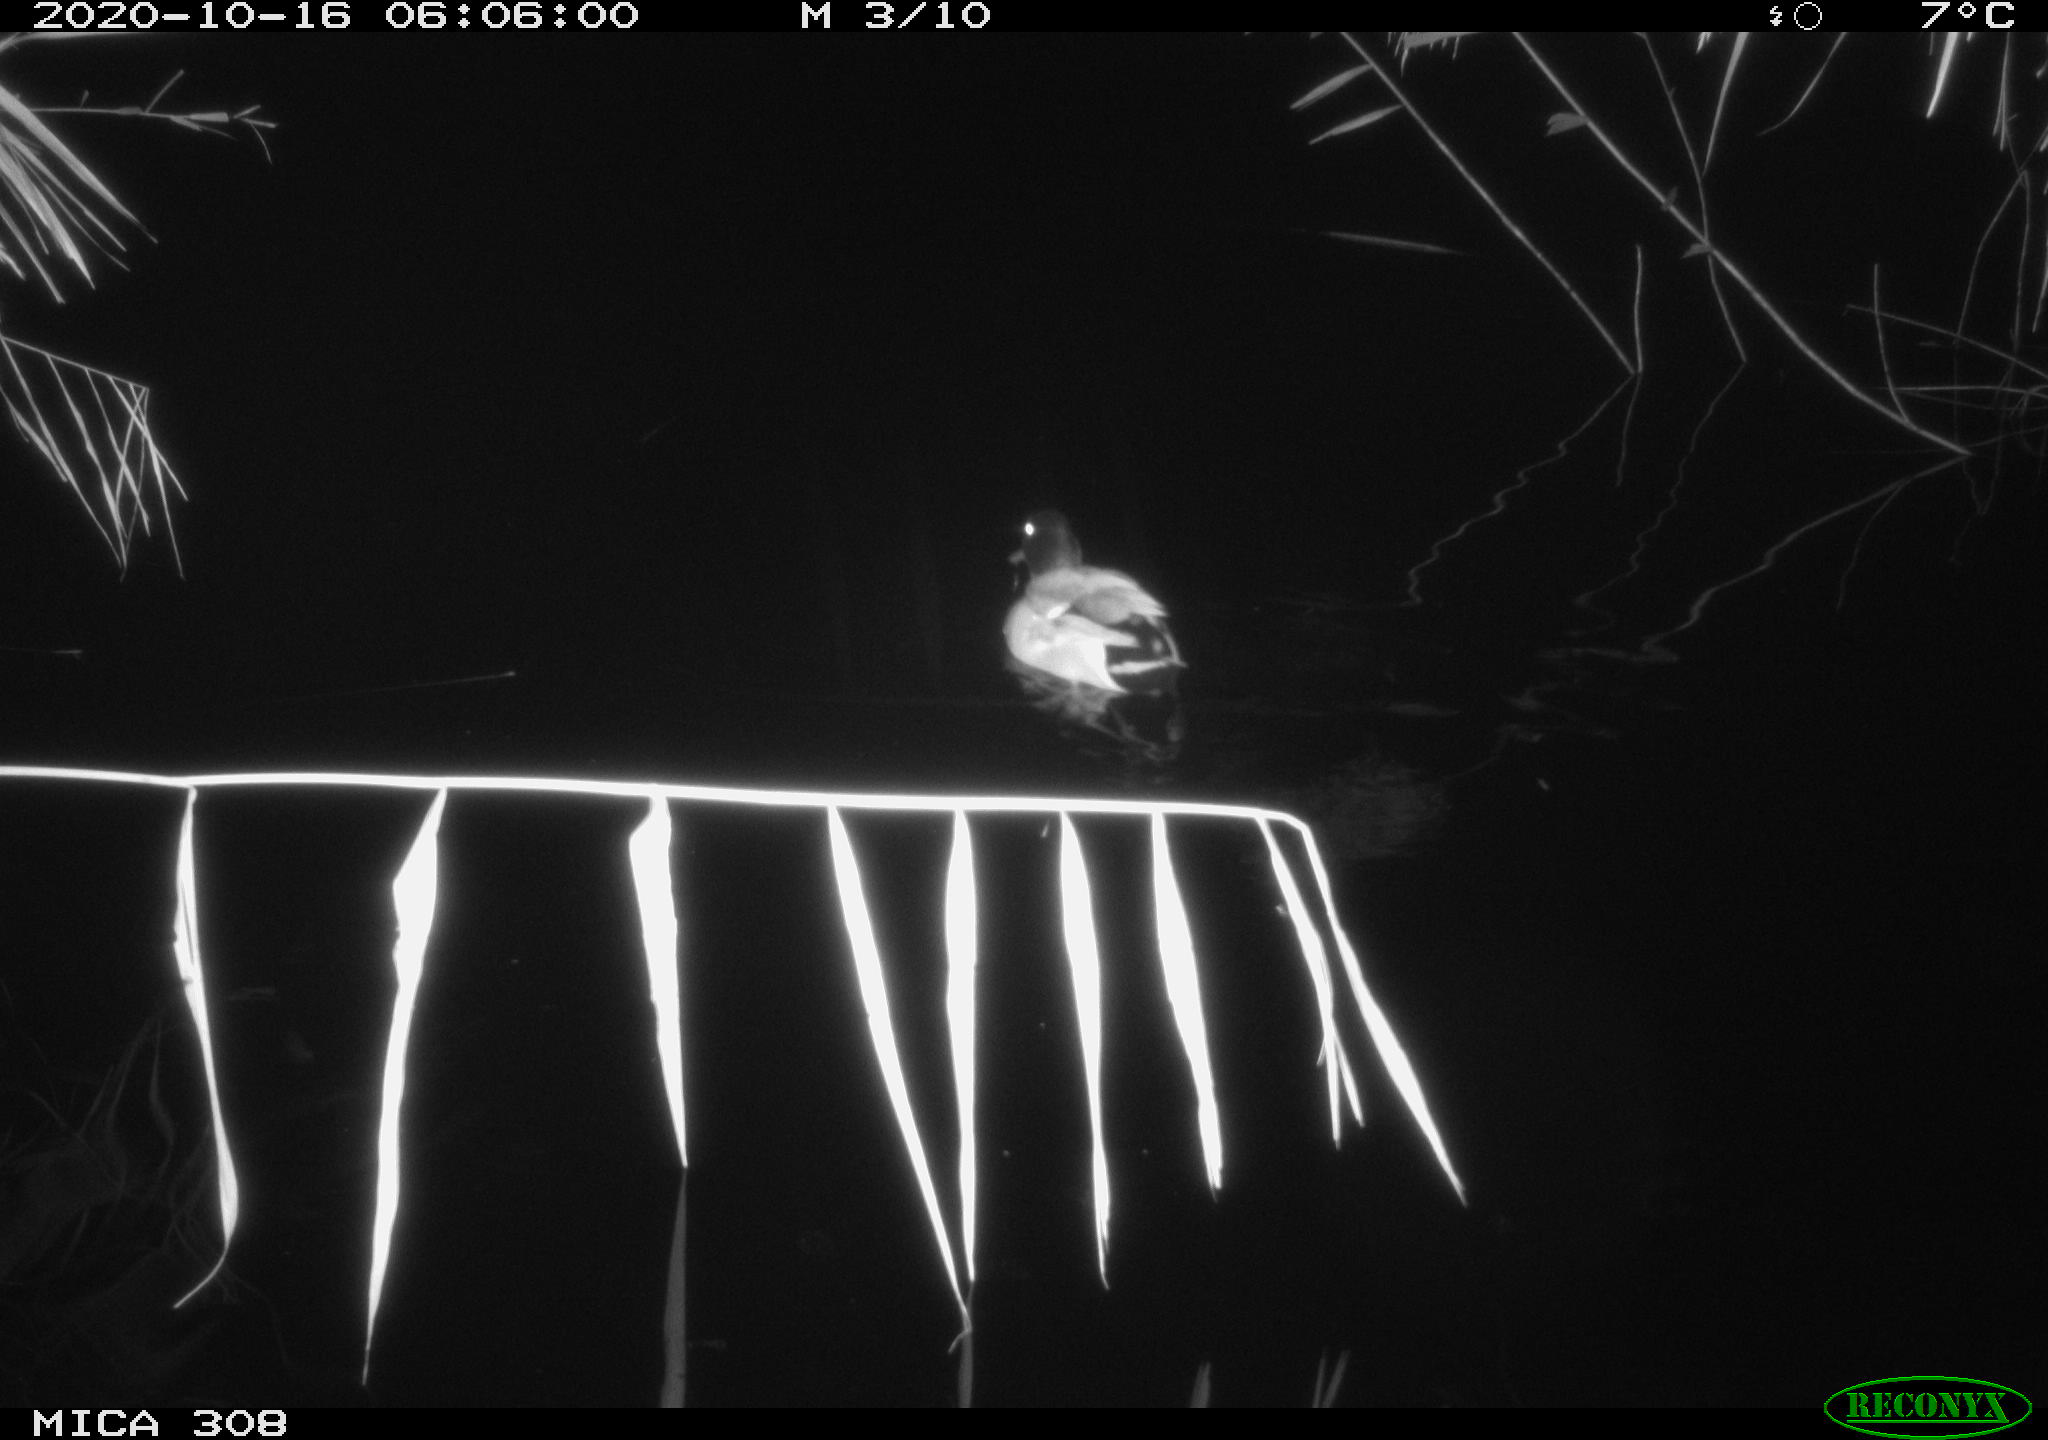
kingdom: Animalia
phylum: Chordata
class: Aves
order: Anseriformes
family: Anatidae
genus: Anas
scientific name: Anas platyrhynchos
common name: Mallard
